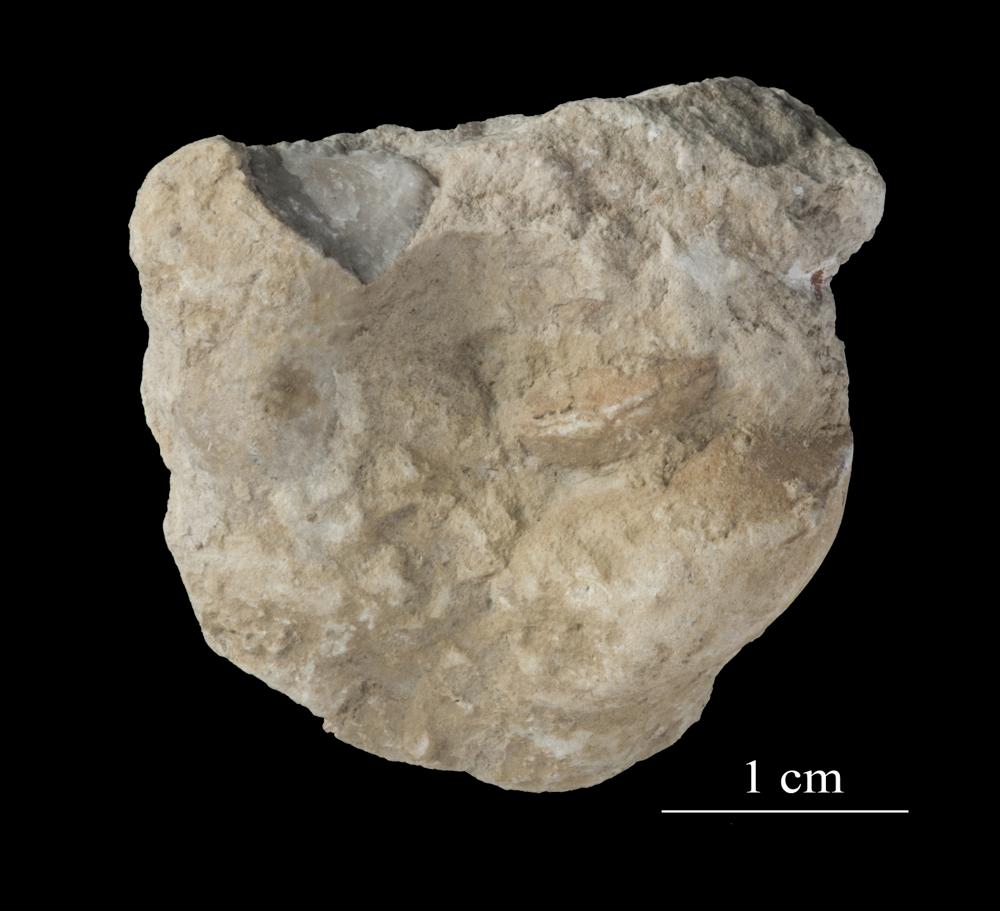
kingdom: Animalia
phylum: Mollusca
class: Gastropoda
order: Neogastropoda
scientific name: Neogastropoda
